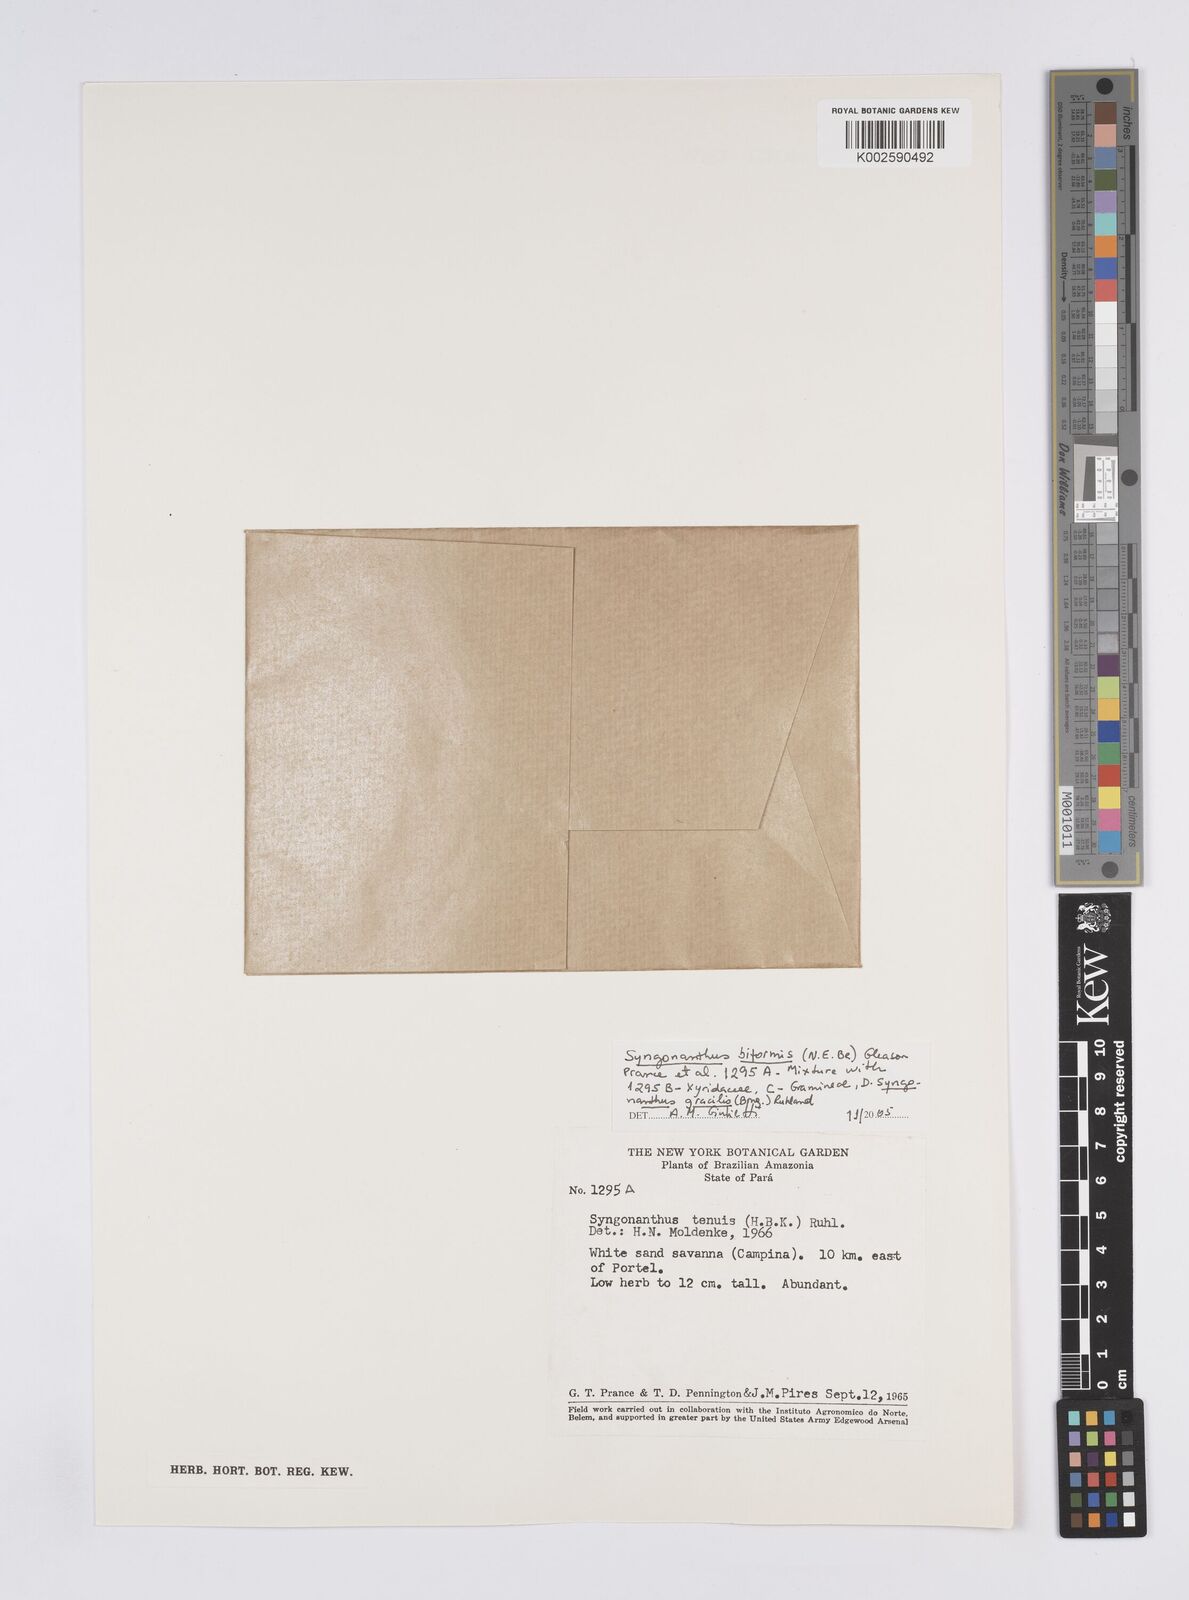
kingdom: Plantae
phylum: Tracheophyta
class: Liliopsida
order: Poales
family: Eriocaulaceae
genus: Syngonanthus
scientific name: Syngonanthus biformis
